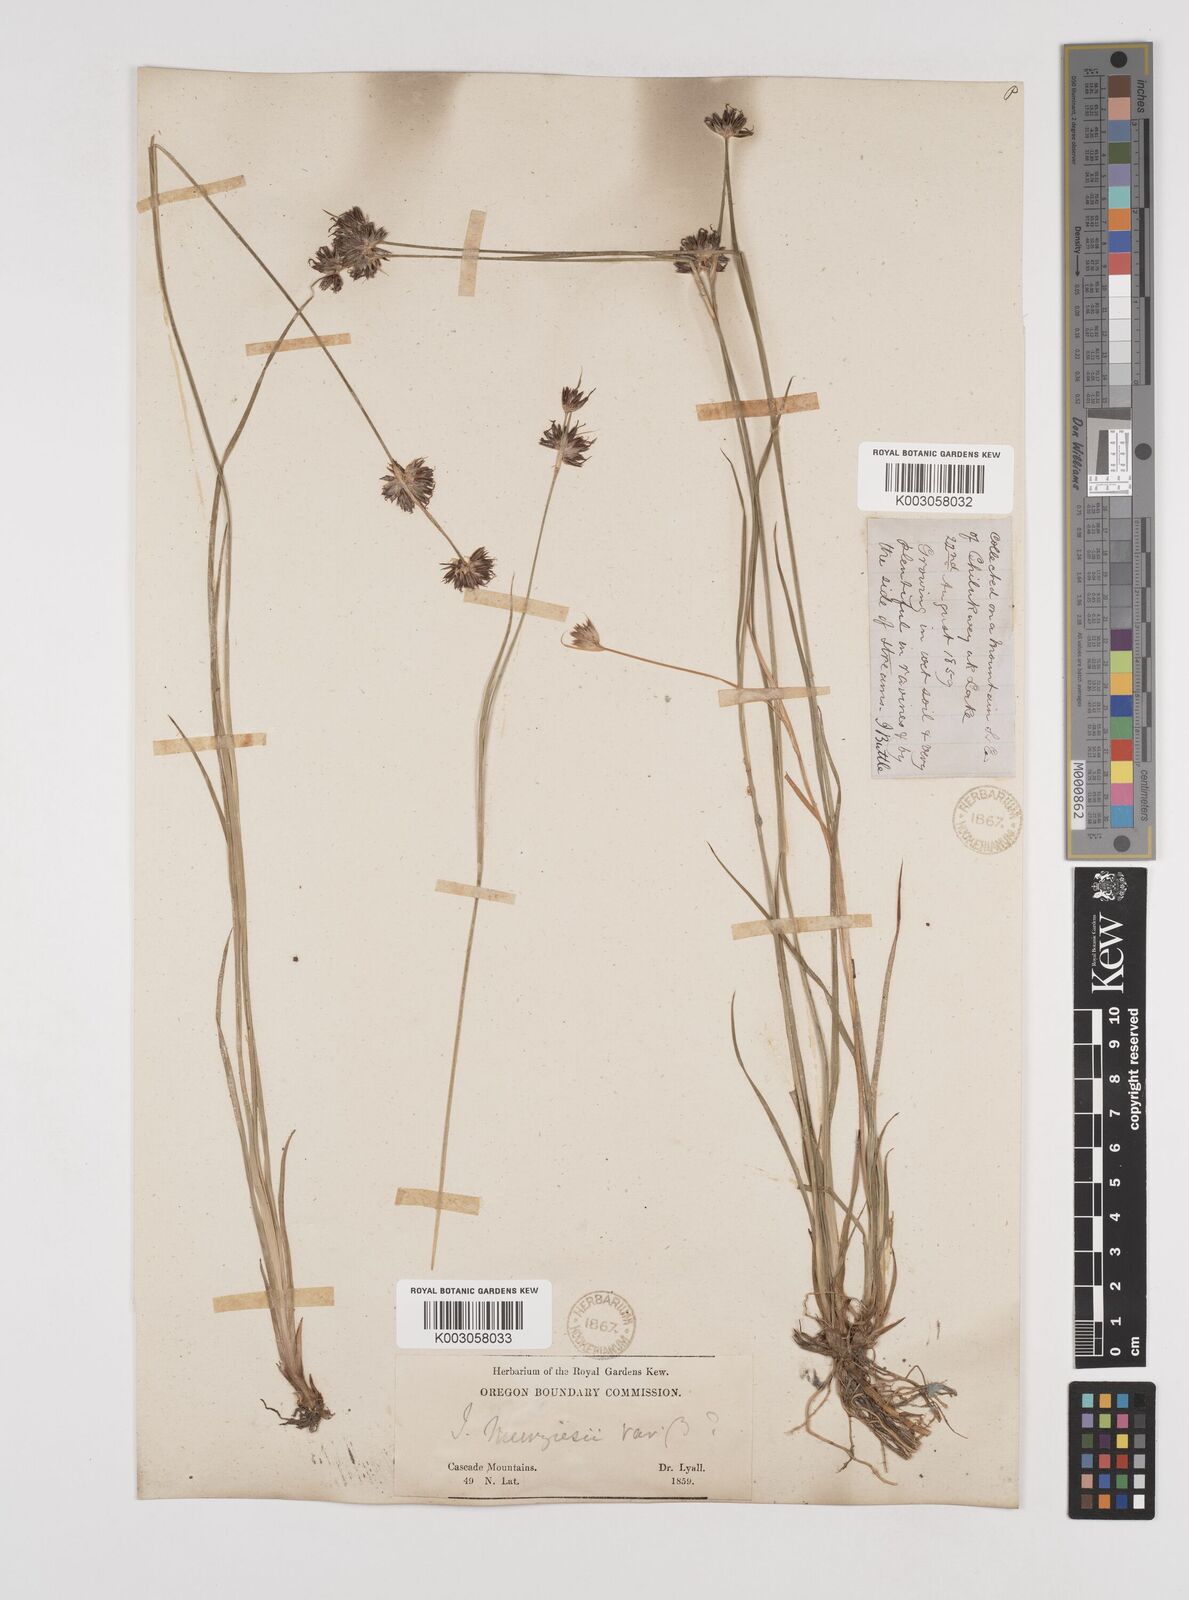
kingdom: Plantae
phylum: Tracheophyta
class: Liliopsida
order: Poales
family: Juncaceae
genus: Juncus
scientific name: Juncus longistylis
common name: Long-style rush
